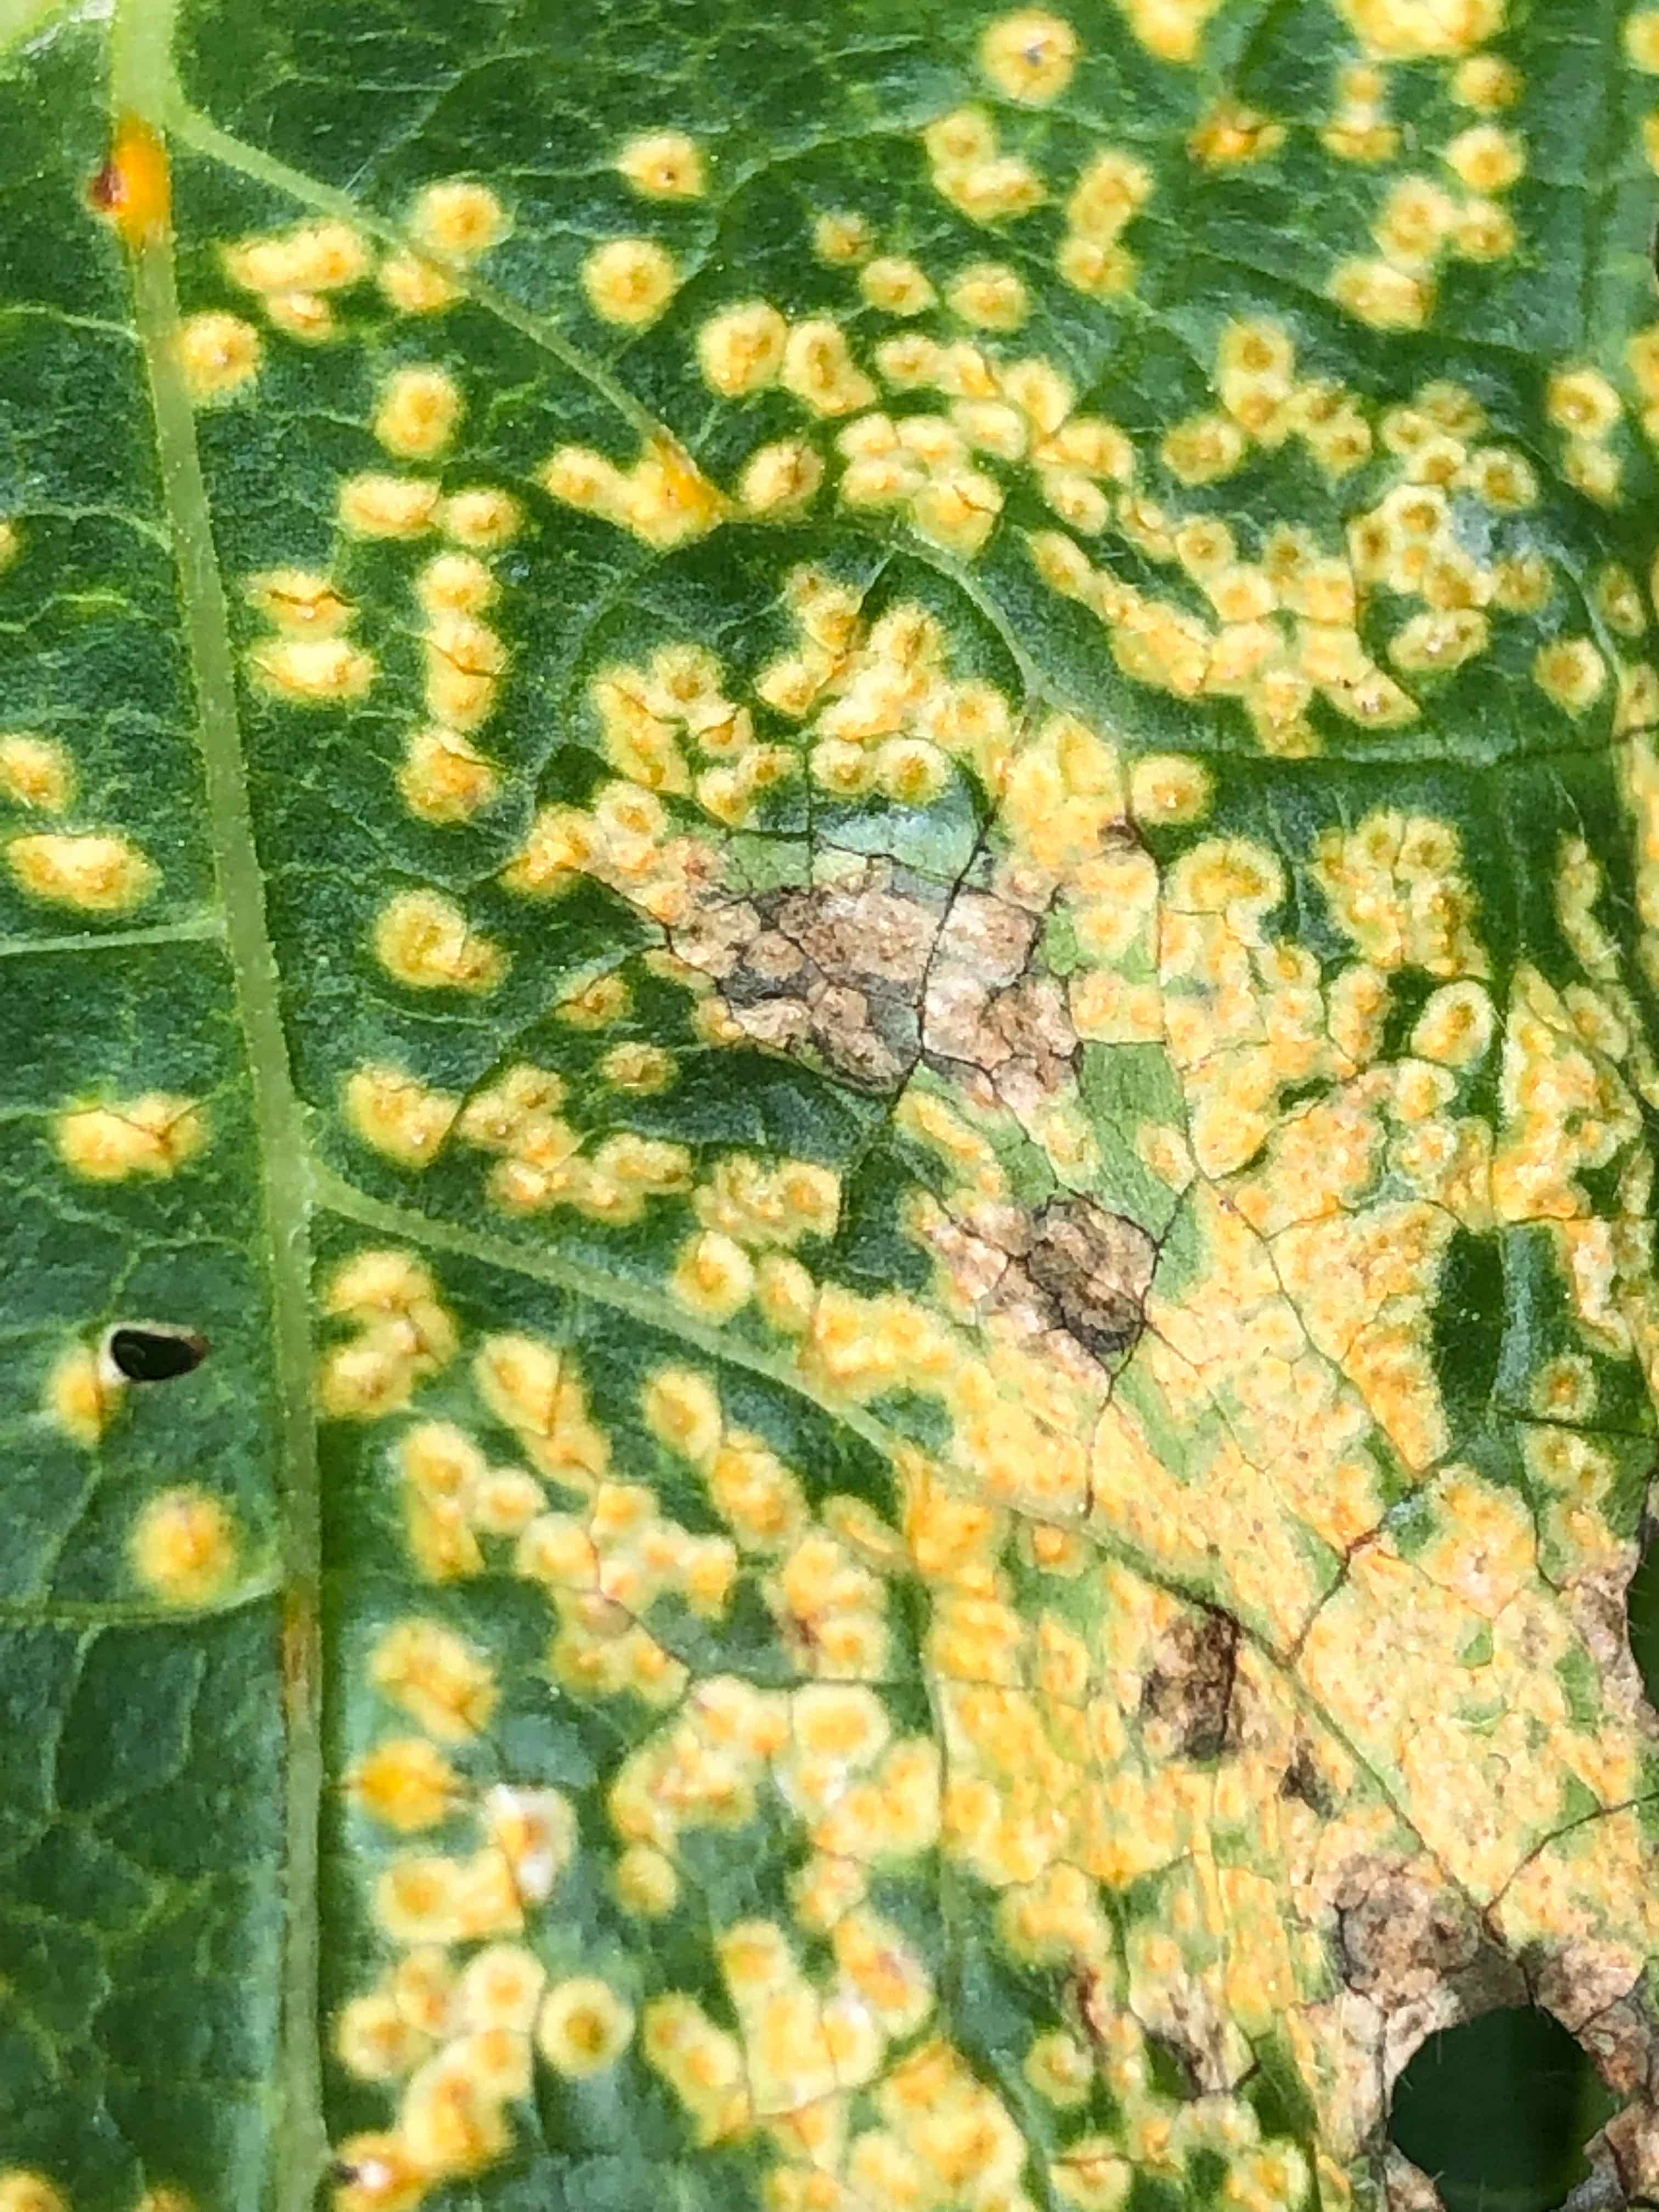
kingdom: Fungi
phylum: Basidiomycota
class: Pucciniomycetes
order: Pucciniales
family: Pucciniaceae
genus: Puccinia
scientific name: Puccinia malvacearum
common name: stokrose-tvecellerust
